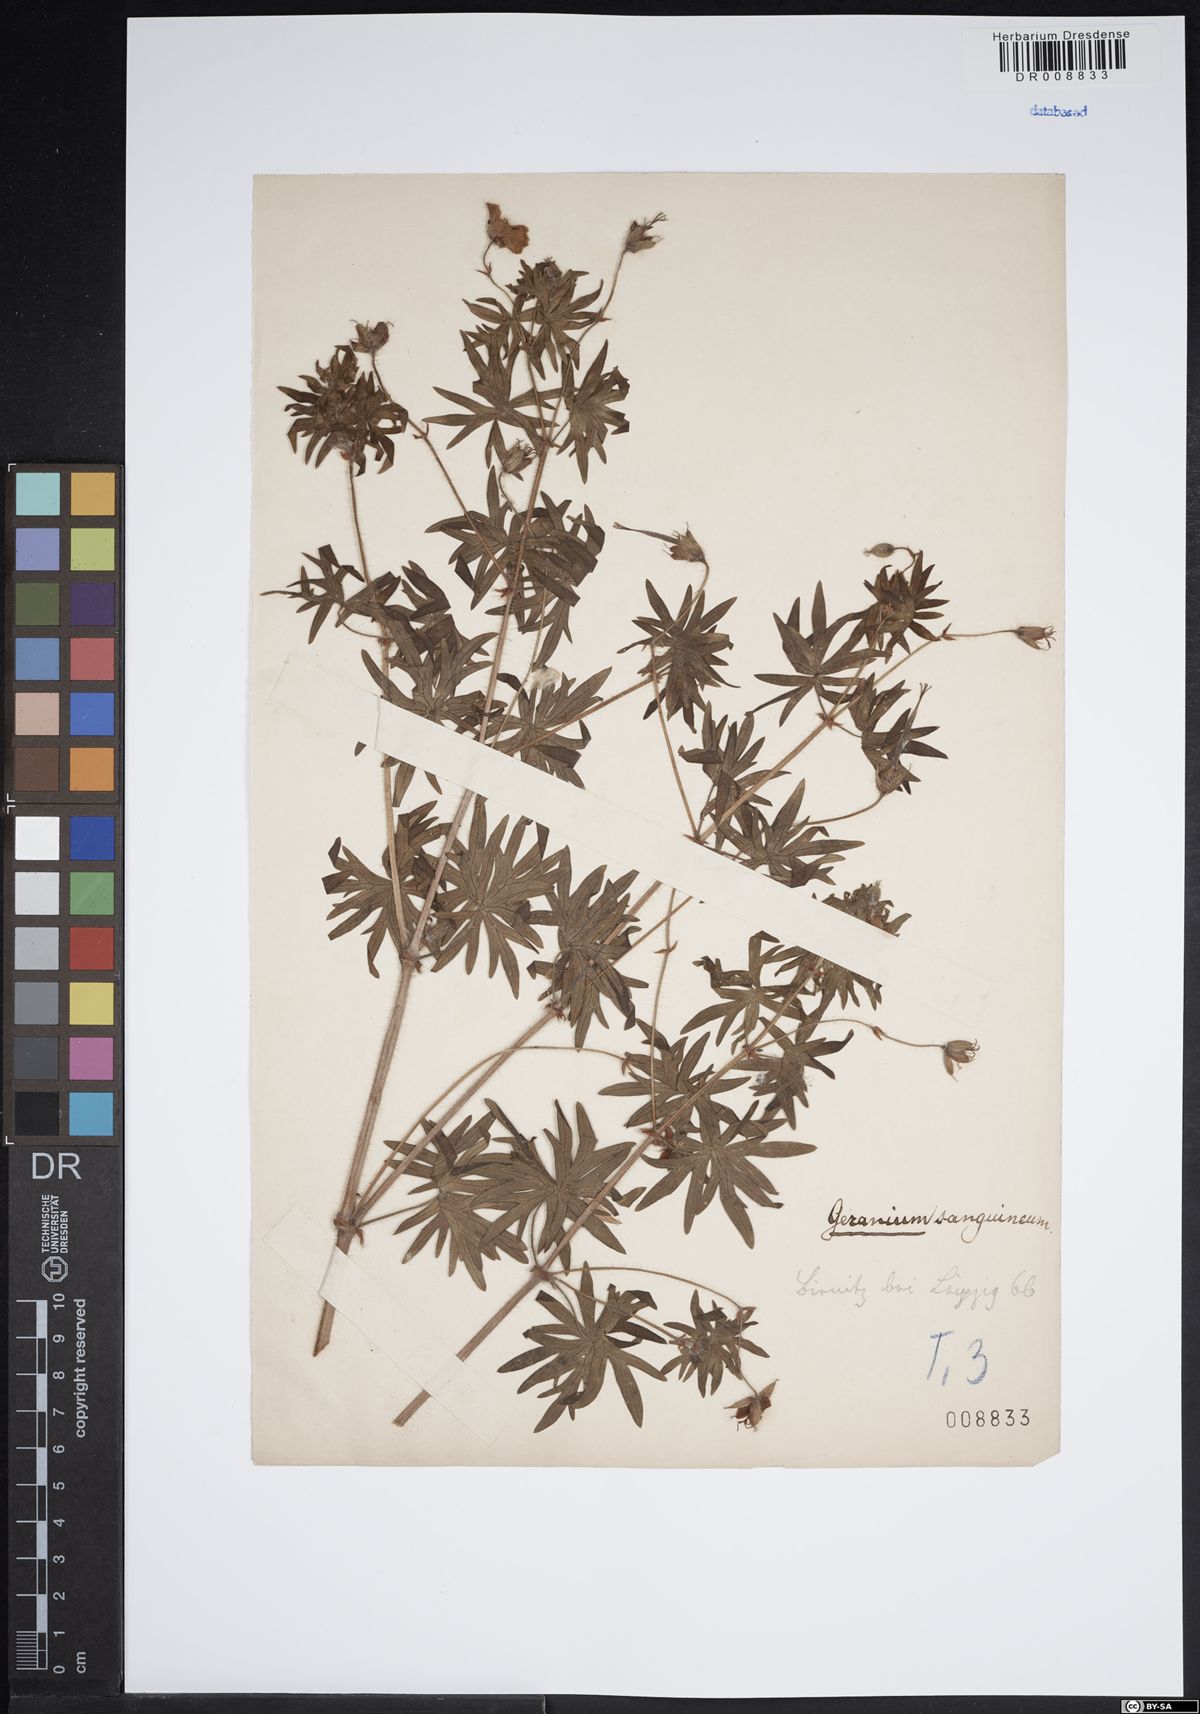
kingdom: Plantae
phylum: Tracheophyta
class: Magnoliopsida
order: Geraniales
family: Geraniaceae
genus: Geranium
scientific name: Geranium sanguineum
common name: Bloody crane's-bill
